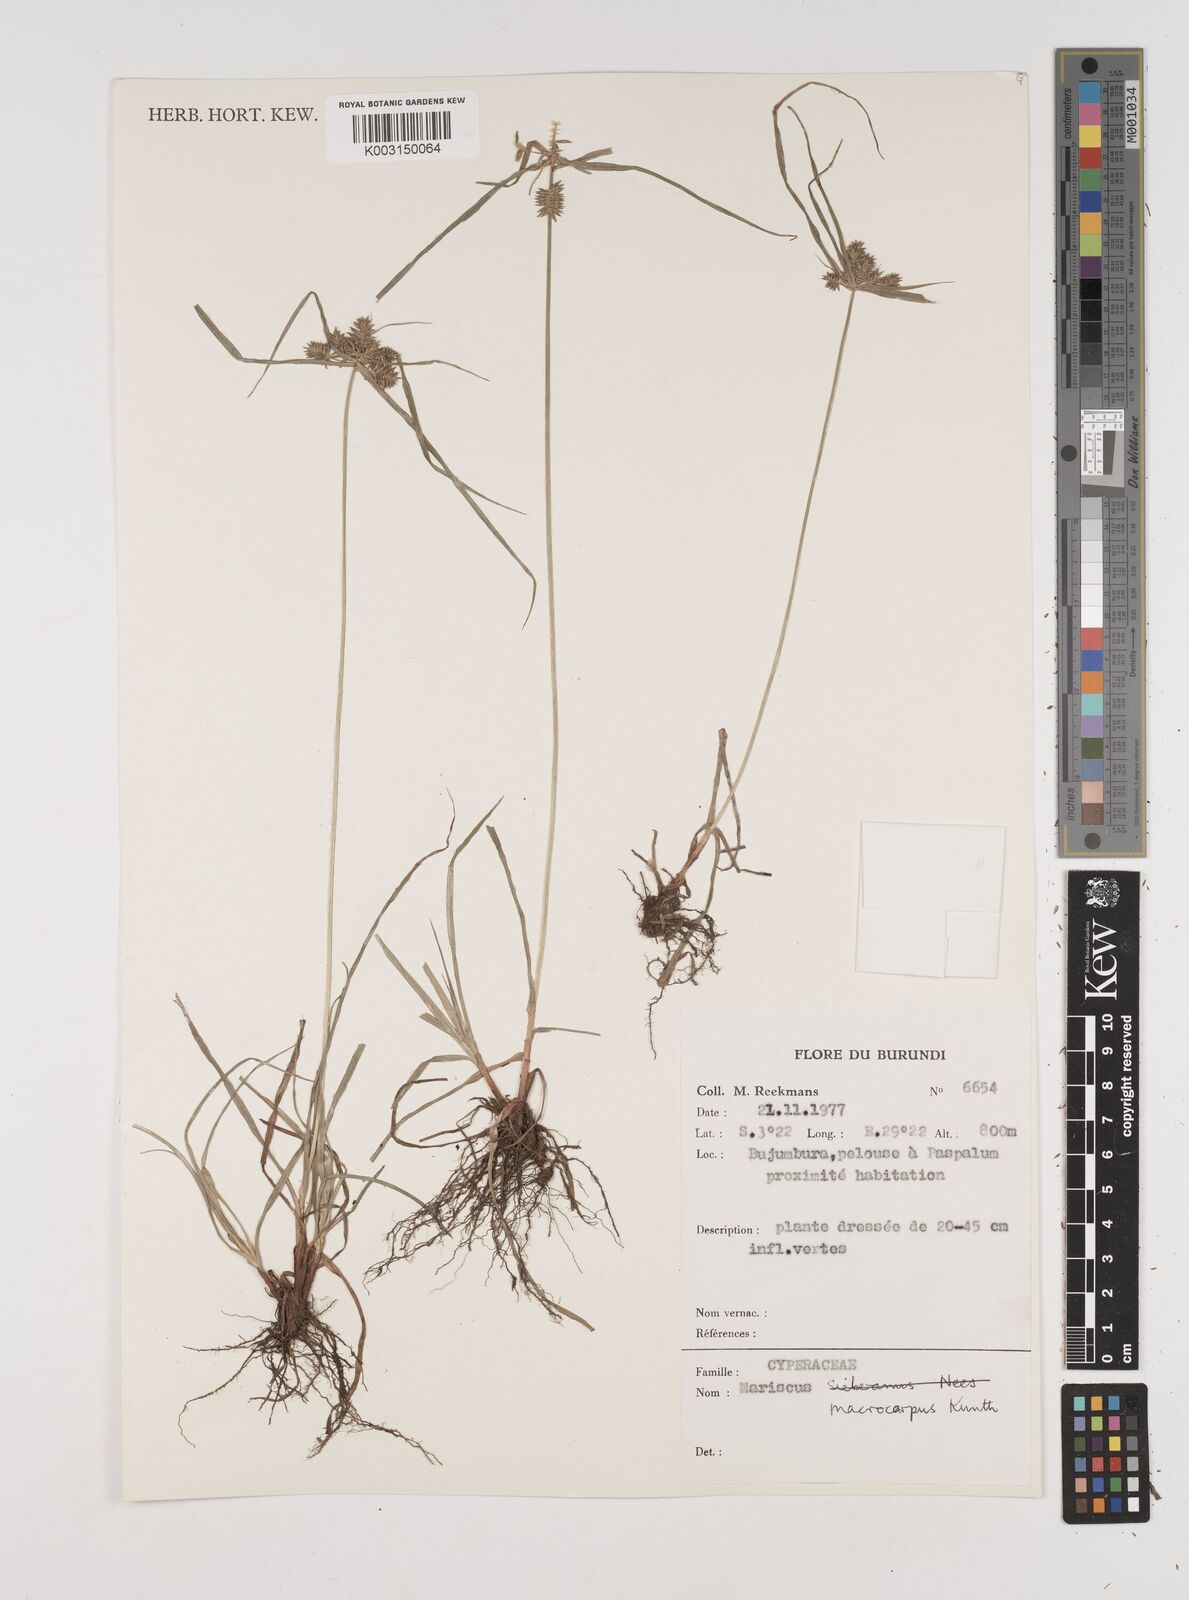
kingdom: Plantae
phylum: Tracheophyta
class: Liliopsida
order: Poales
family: Cyperaceae
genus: Cyperus
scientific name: Cyperus macrocarpus
